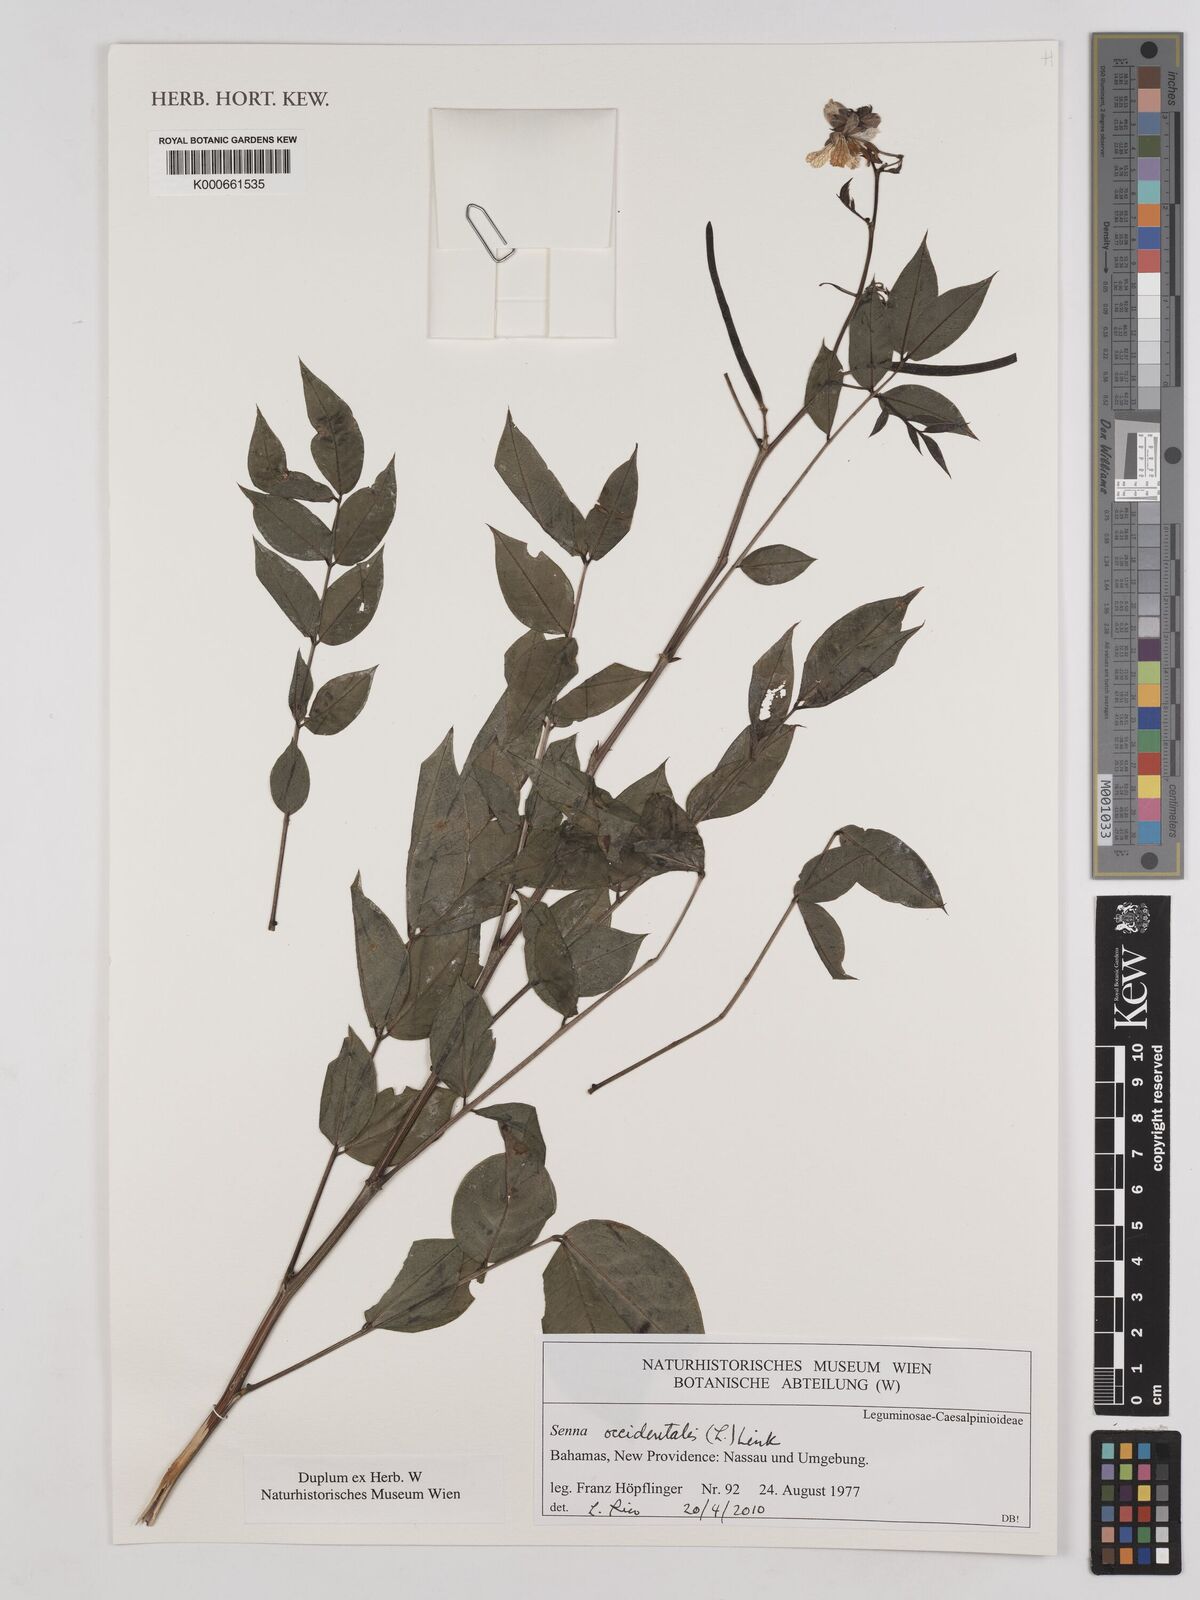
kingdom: Plantae
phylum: Tracheophyta
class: Magnoliopsida
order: Fabales
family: Fabaceae
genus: Senna
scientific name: Senna occidentalis
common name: Septicweed
